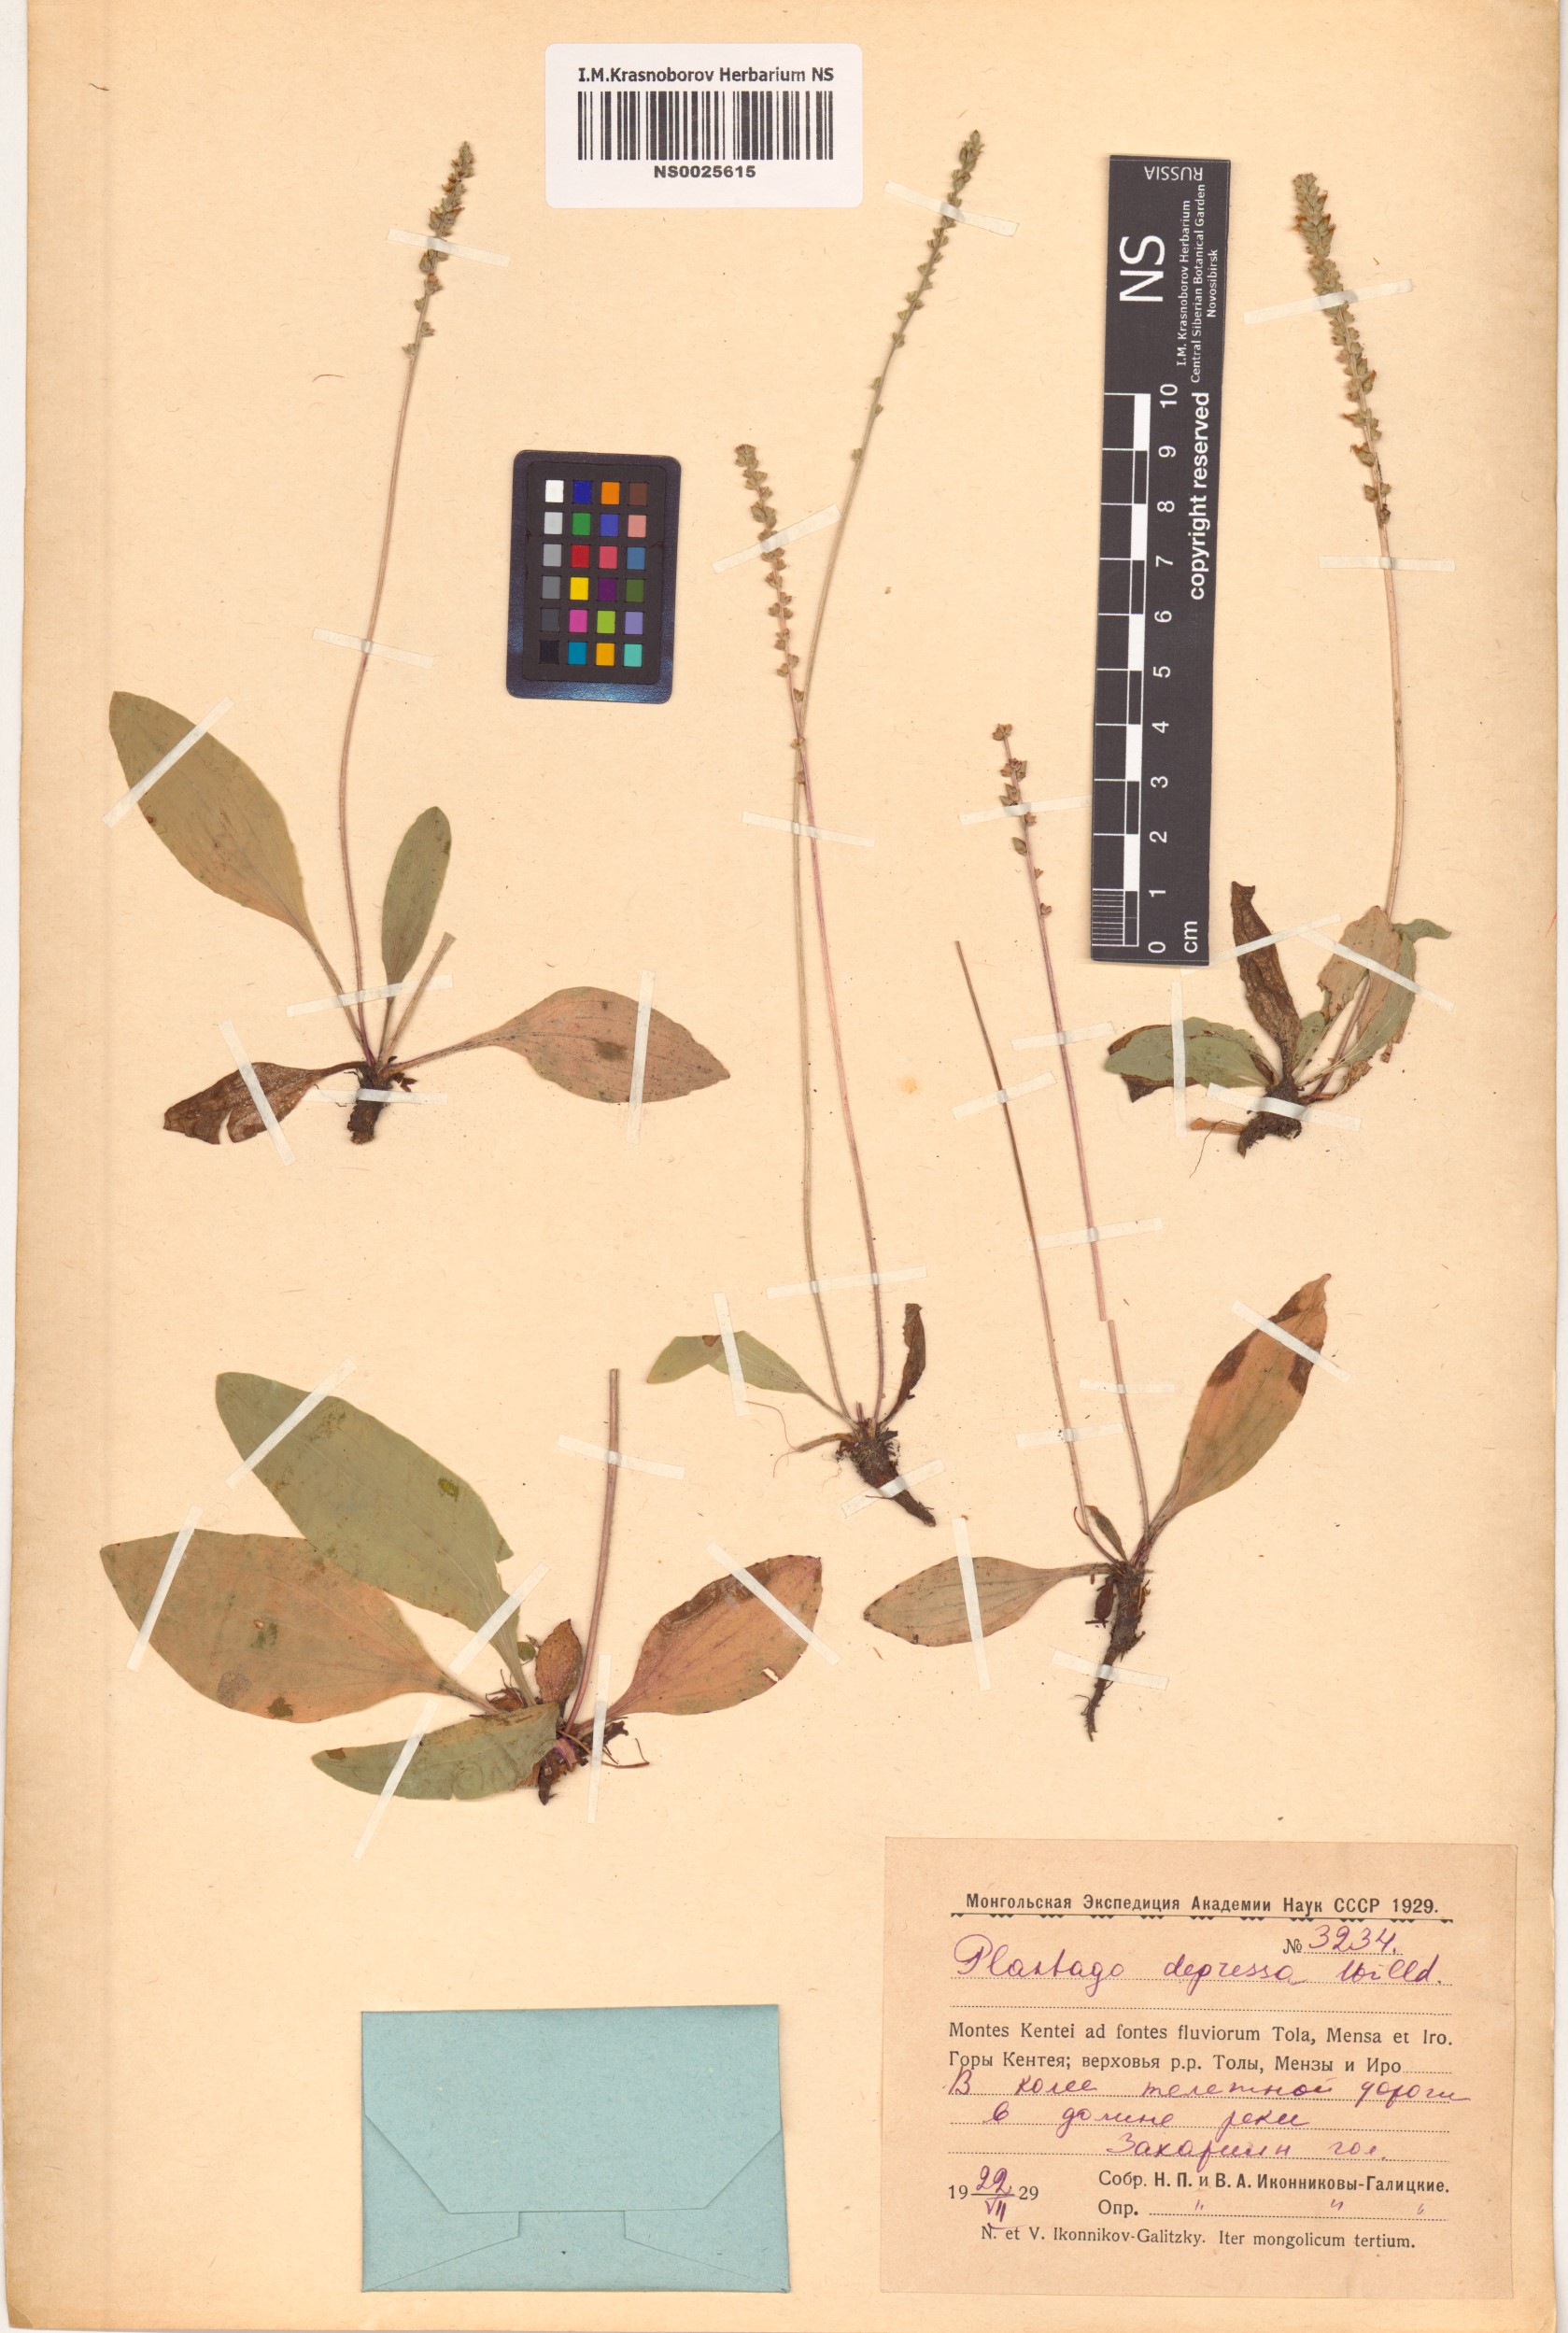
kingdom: Plantae
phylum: Tracheophyta
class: Magnoliopsida
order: Lamiales
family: Plantaginaceae
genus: Plantago
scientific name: Plantago depressa
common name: Depressed plantain
